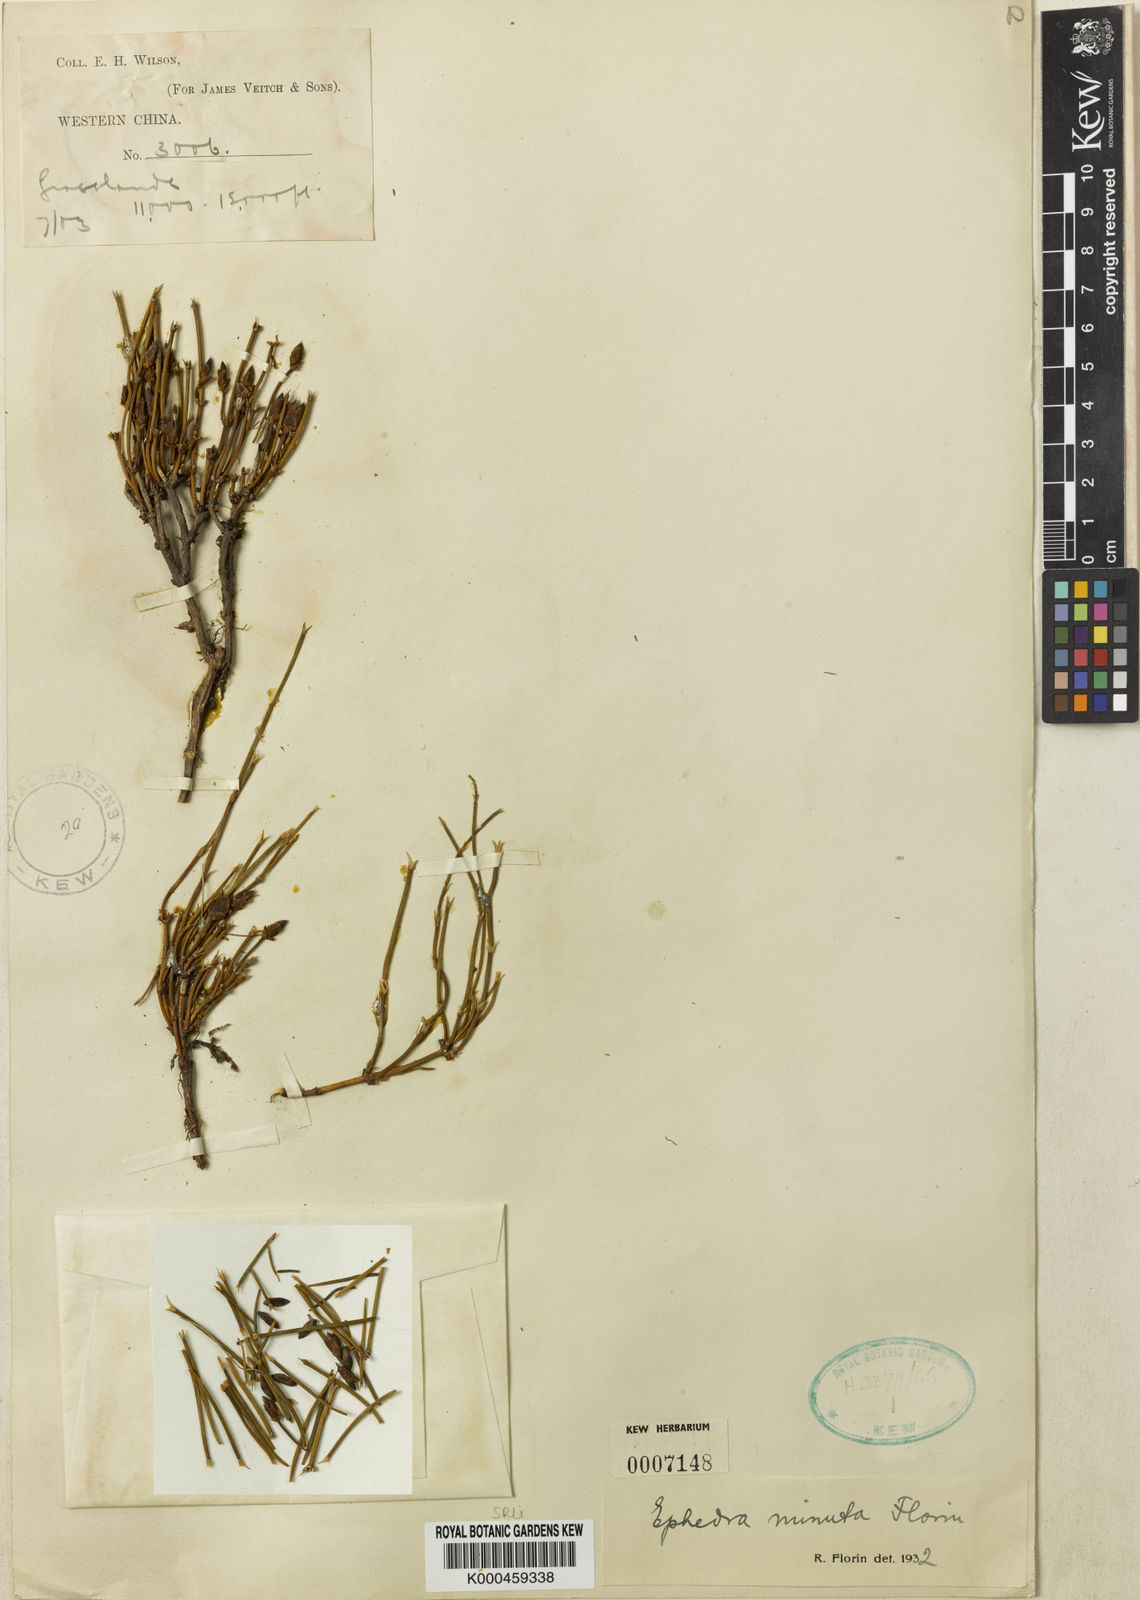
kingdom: Plantae
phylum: Tracheophyta
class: Gnetopsida
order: Ephedrales
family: Ephedraceae
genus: Ephedra
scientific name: Ephedra minuta
